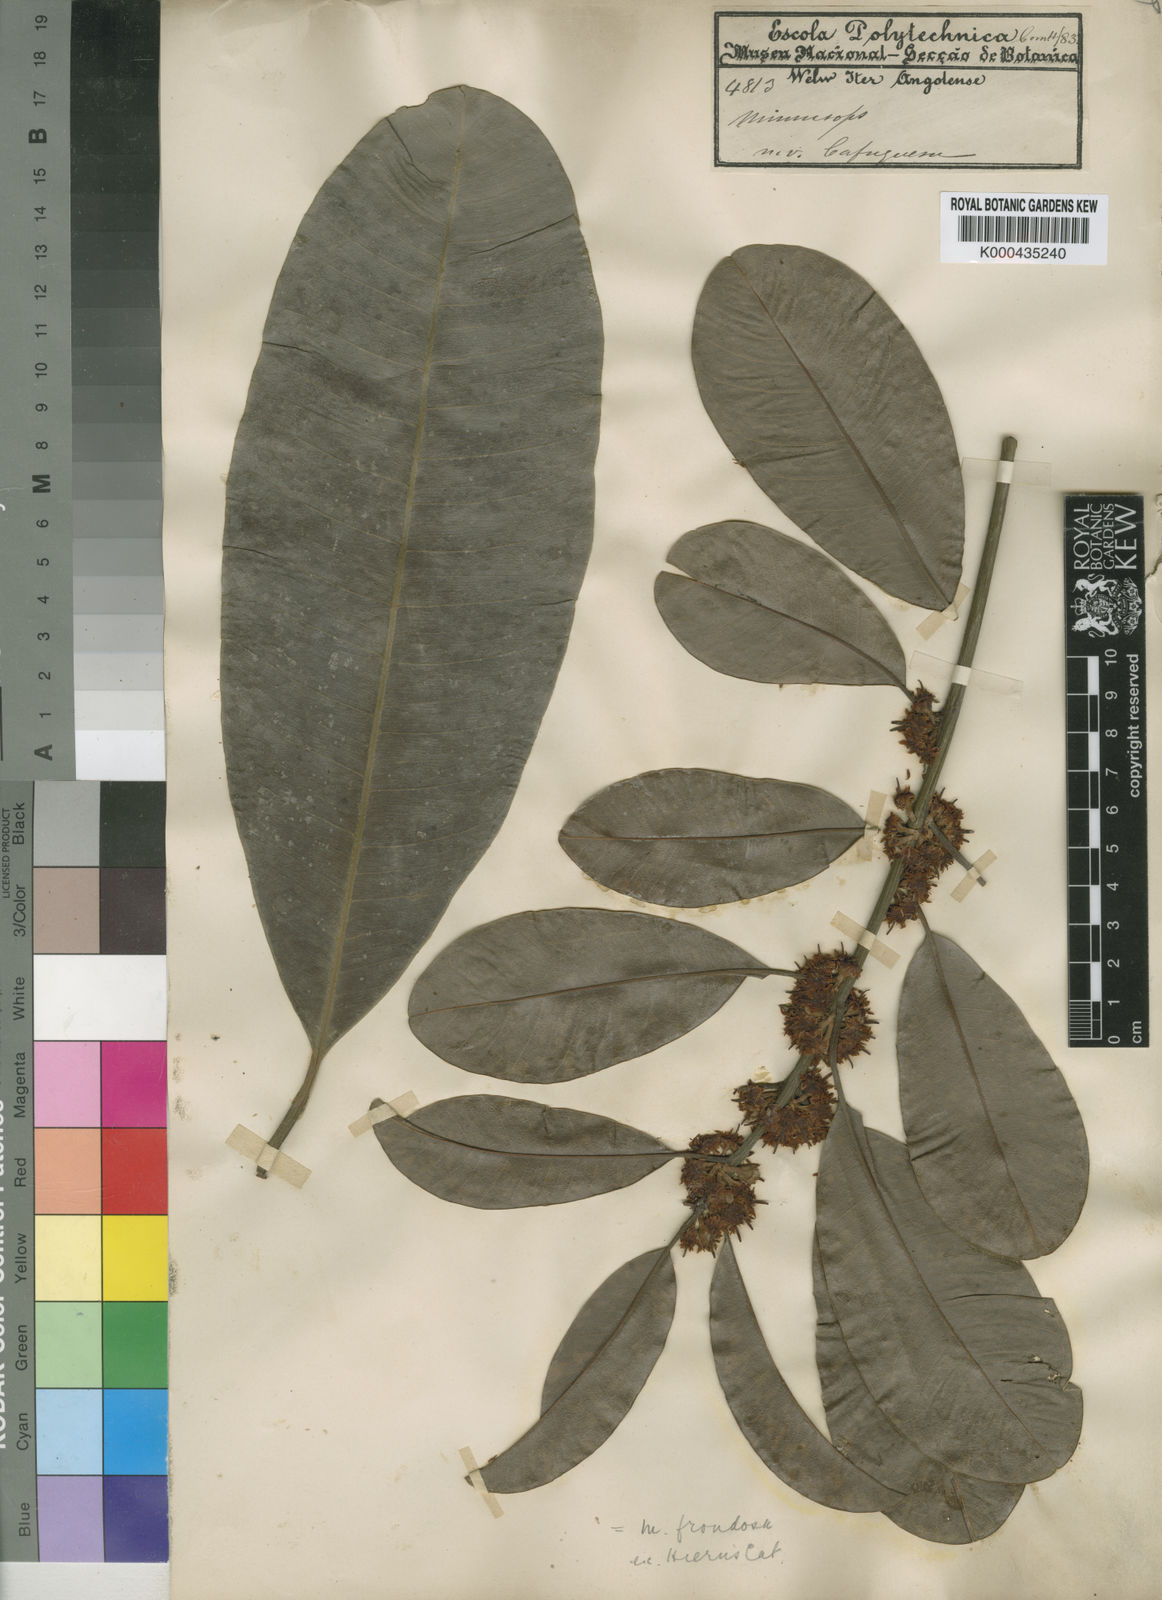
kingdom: Plantae
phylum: Tracheophyta
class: Magnoliopsida
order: Ericales
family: Sapotaceae
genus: Manilkara
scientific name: Manilkara frondosa
